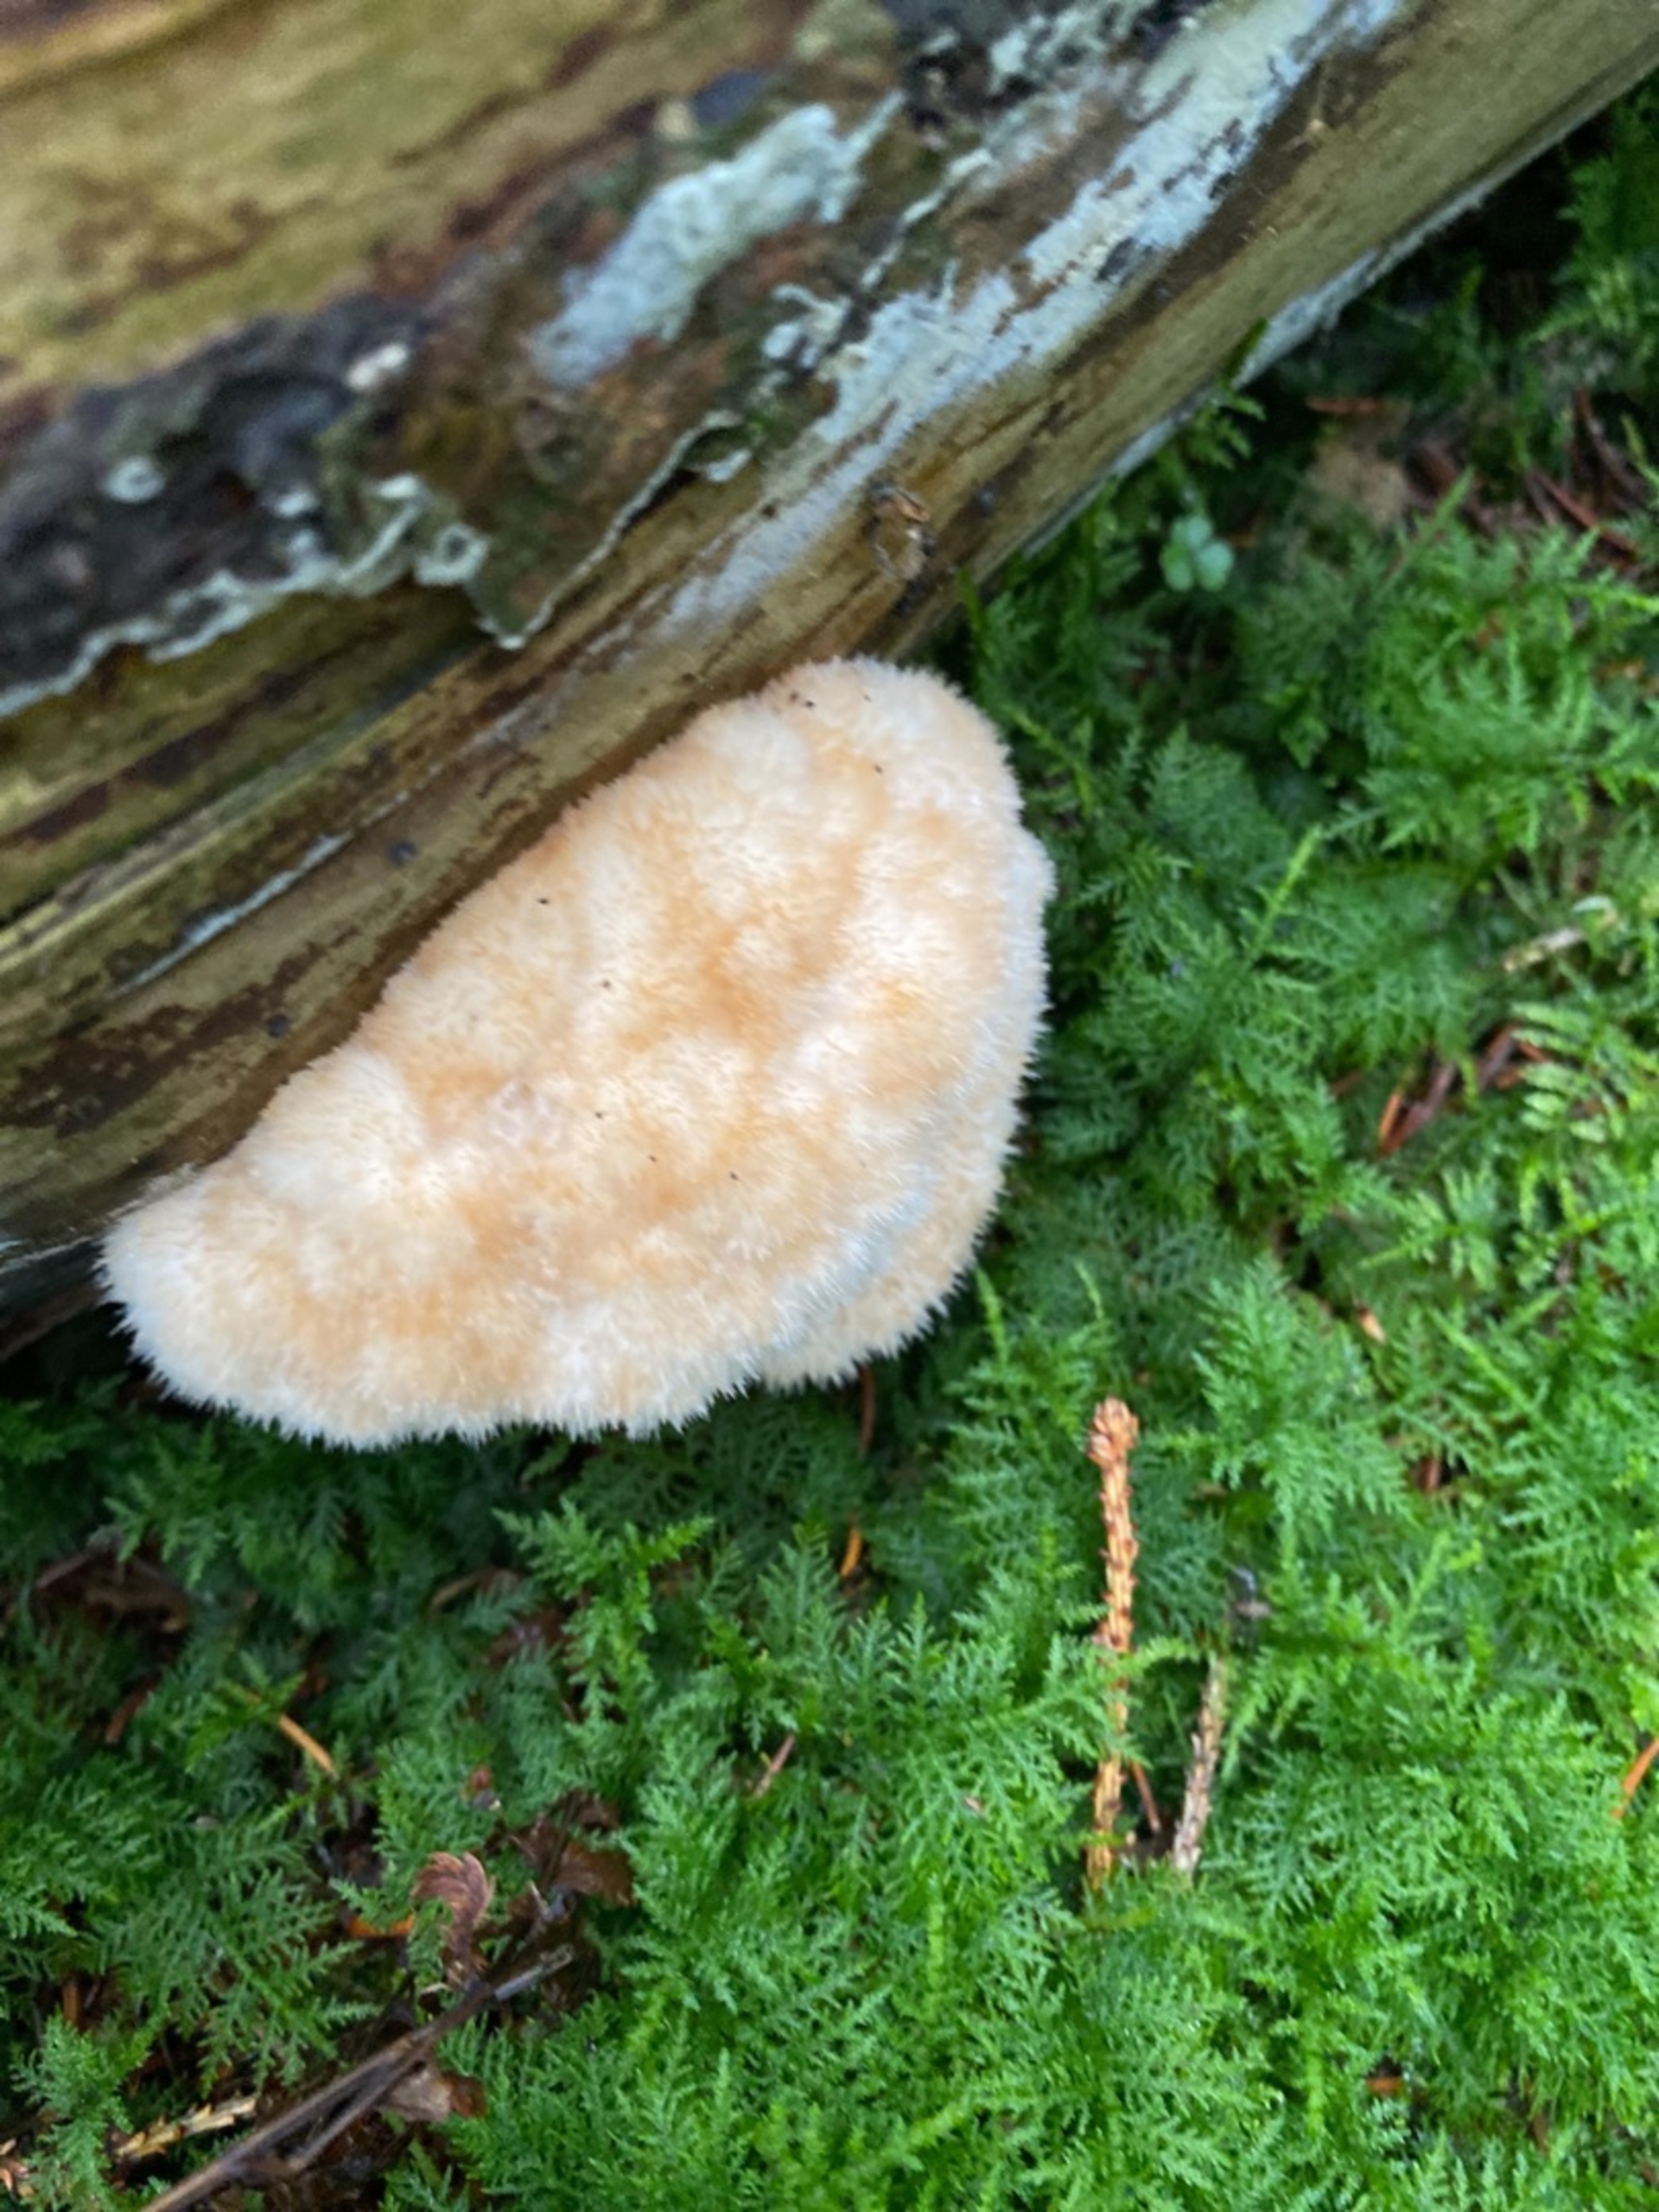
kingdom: Fungi
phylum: Basidiomycota
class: Agaricomycetes
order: Polyporales
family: Dacryobolaceae
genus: Postia
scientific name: Postia ptychogaster
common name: Støvende kødporesvamp
